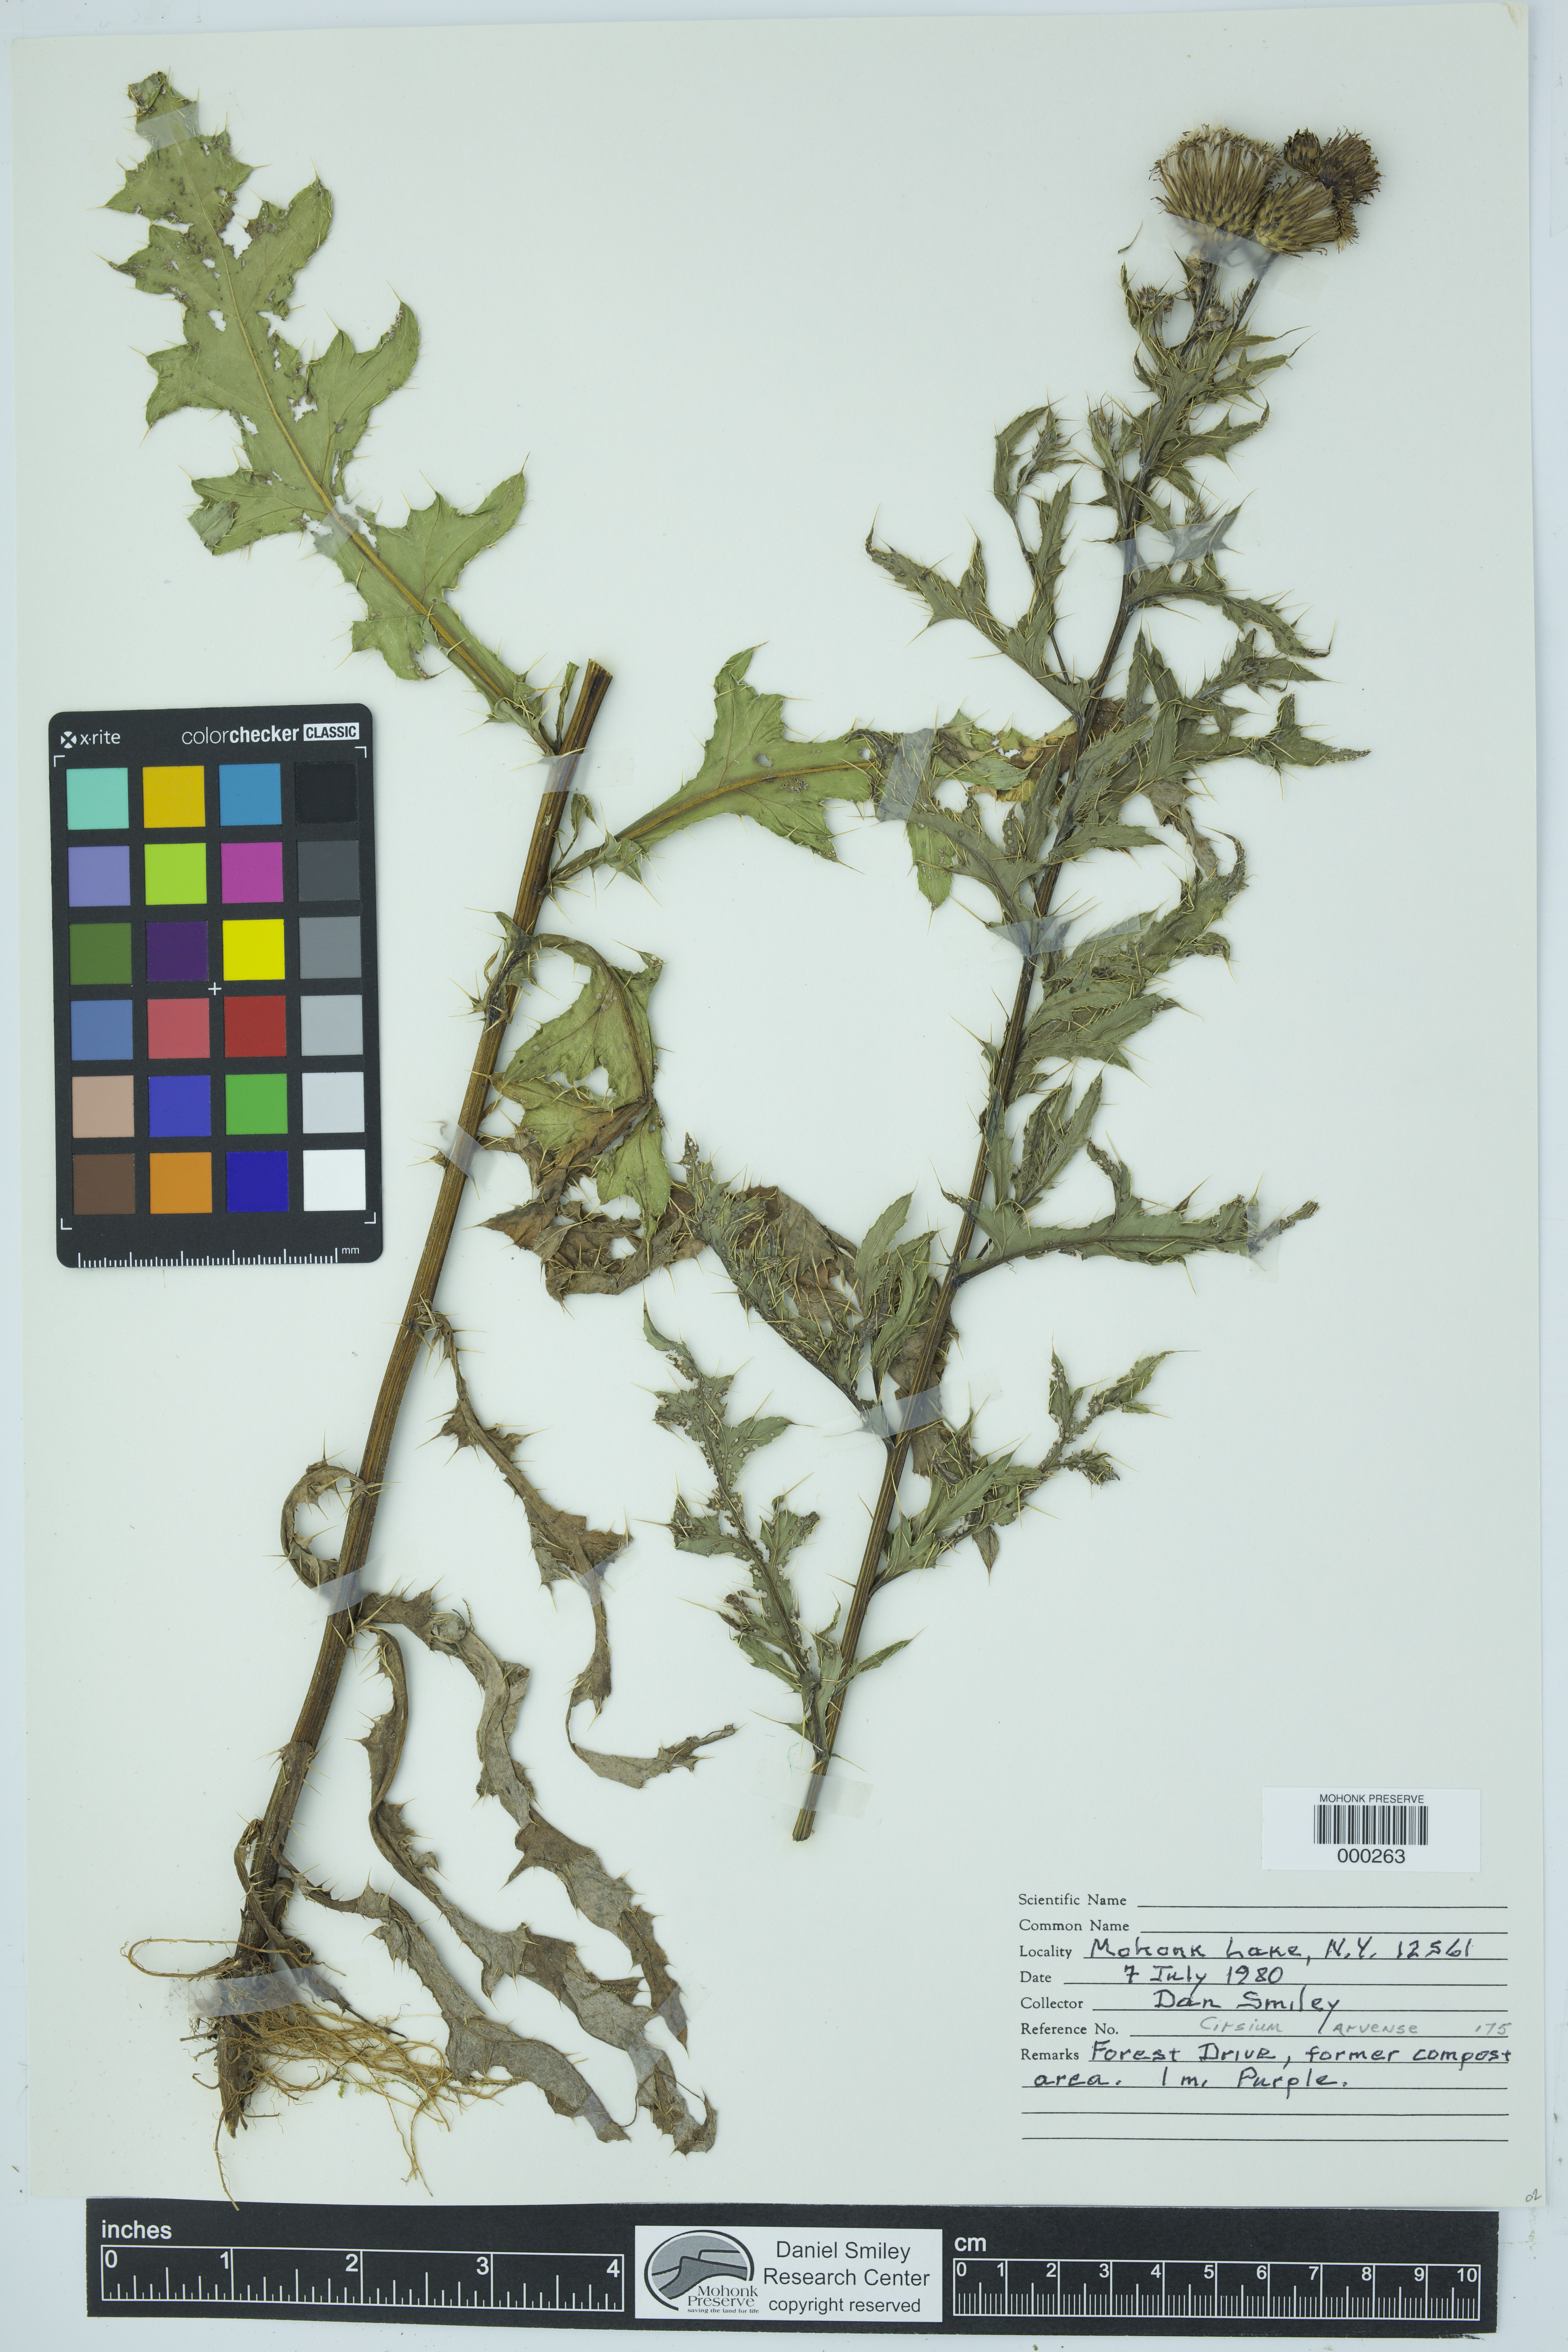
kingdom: Plantae
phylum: Tracheophyta
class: Magnoliopsida
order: Asterales
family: Asteraceae
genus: Cirsium
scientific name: Cirsium arvense
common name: Creeping thistle
